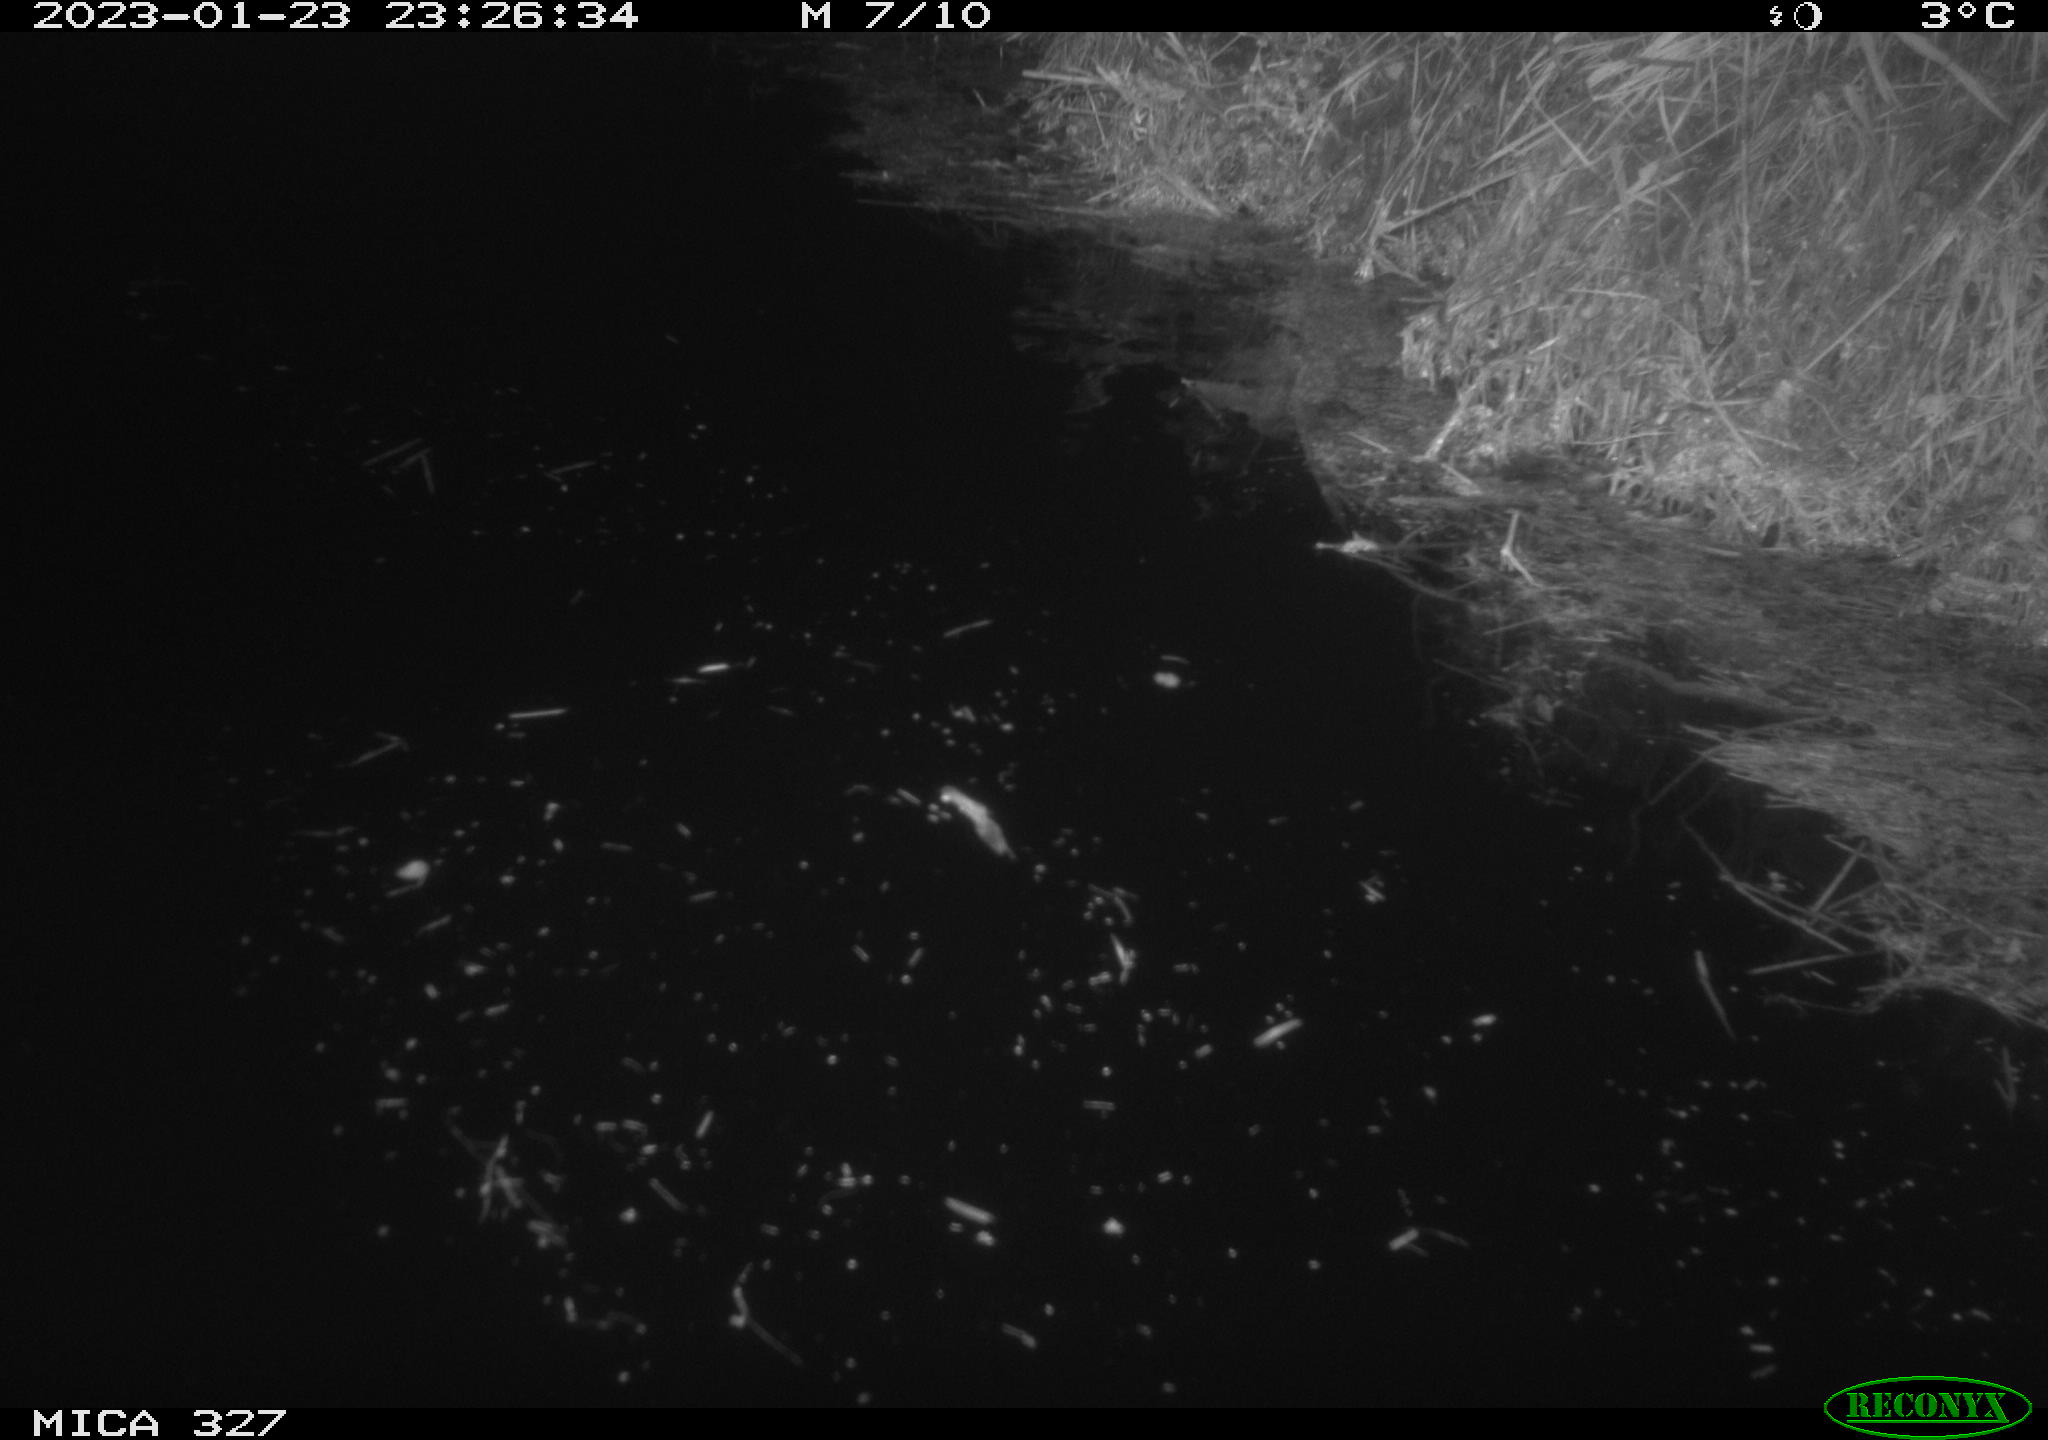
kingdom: Animalia
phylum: Chordata
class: Mammalia
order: Rodentia
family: Cricetidae
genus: Ondatra
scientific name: Ondatra zibethicus
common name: Muskrat
